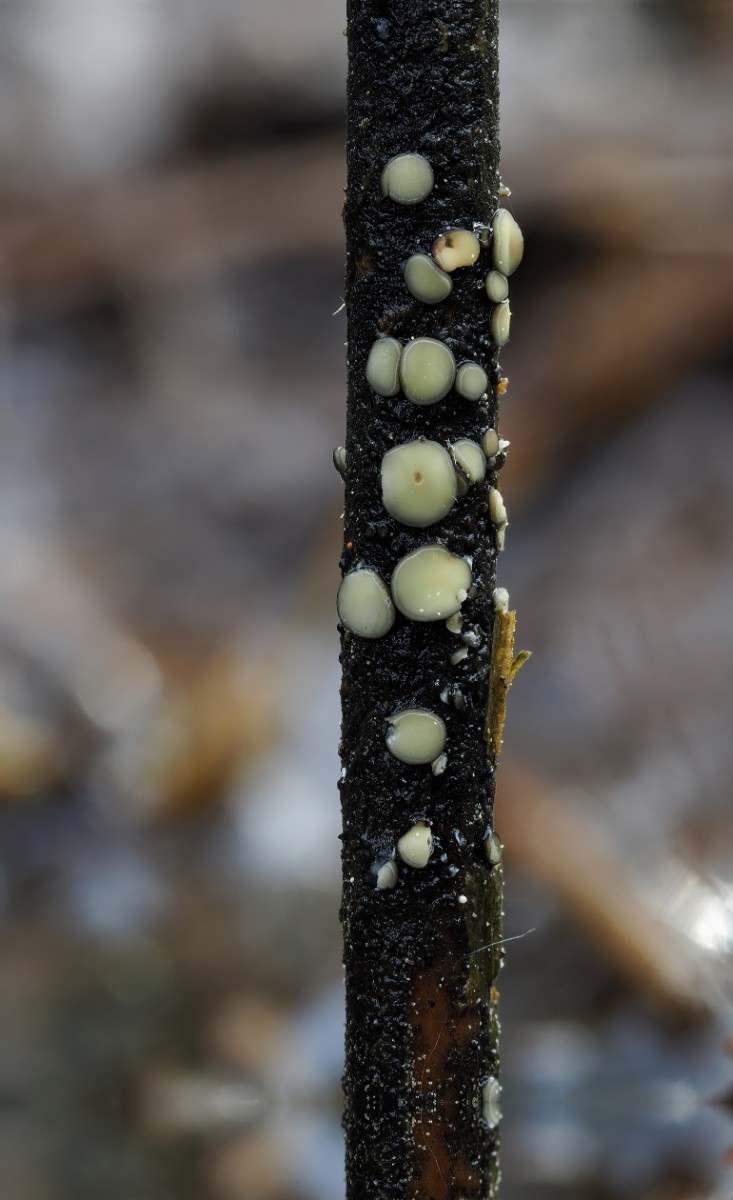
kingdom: Fungi
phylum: Ascomycota
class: Leotiomycetes
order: Helotiales
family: Mollisiaceae
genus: Trichobelonium
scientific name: Trichobelonium kneiffii
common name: tagrør-gråskive
